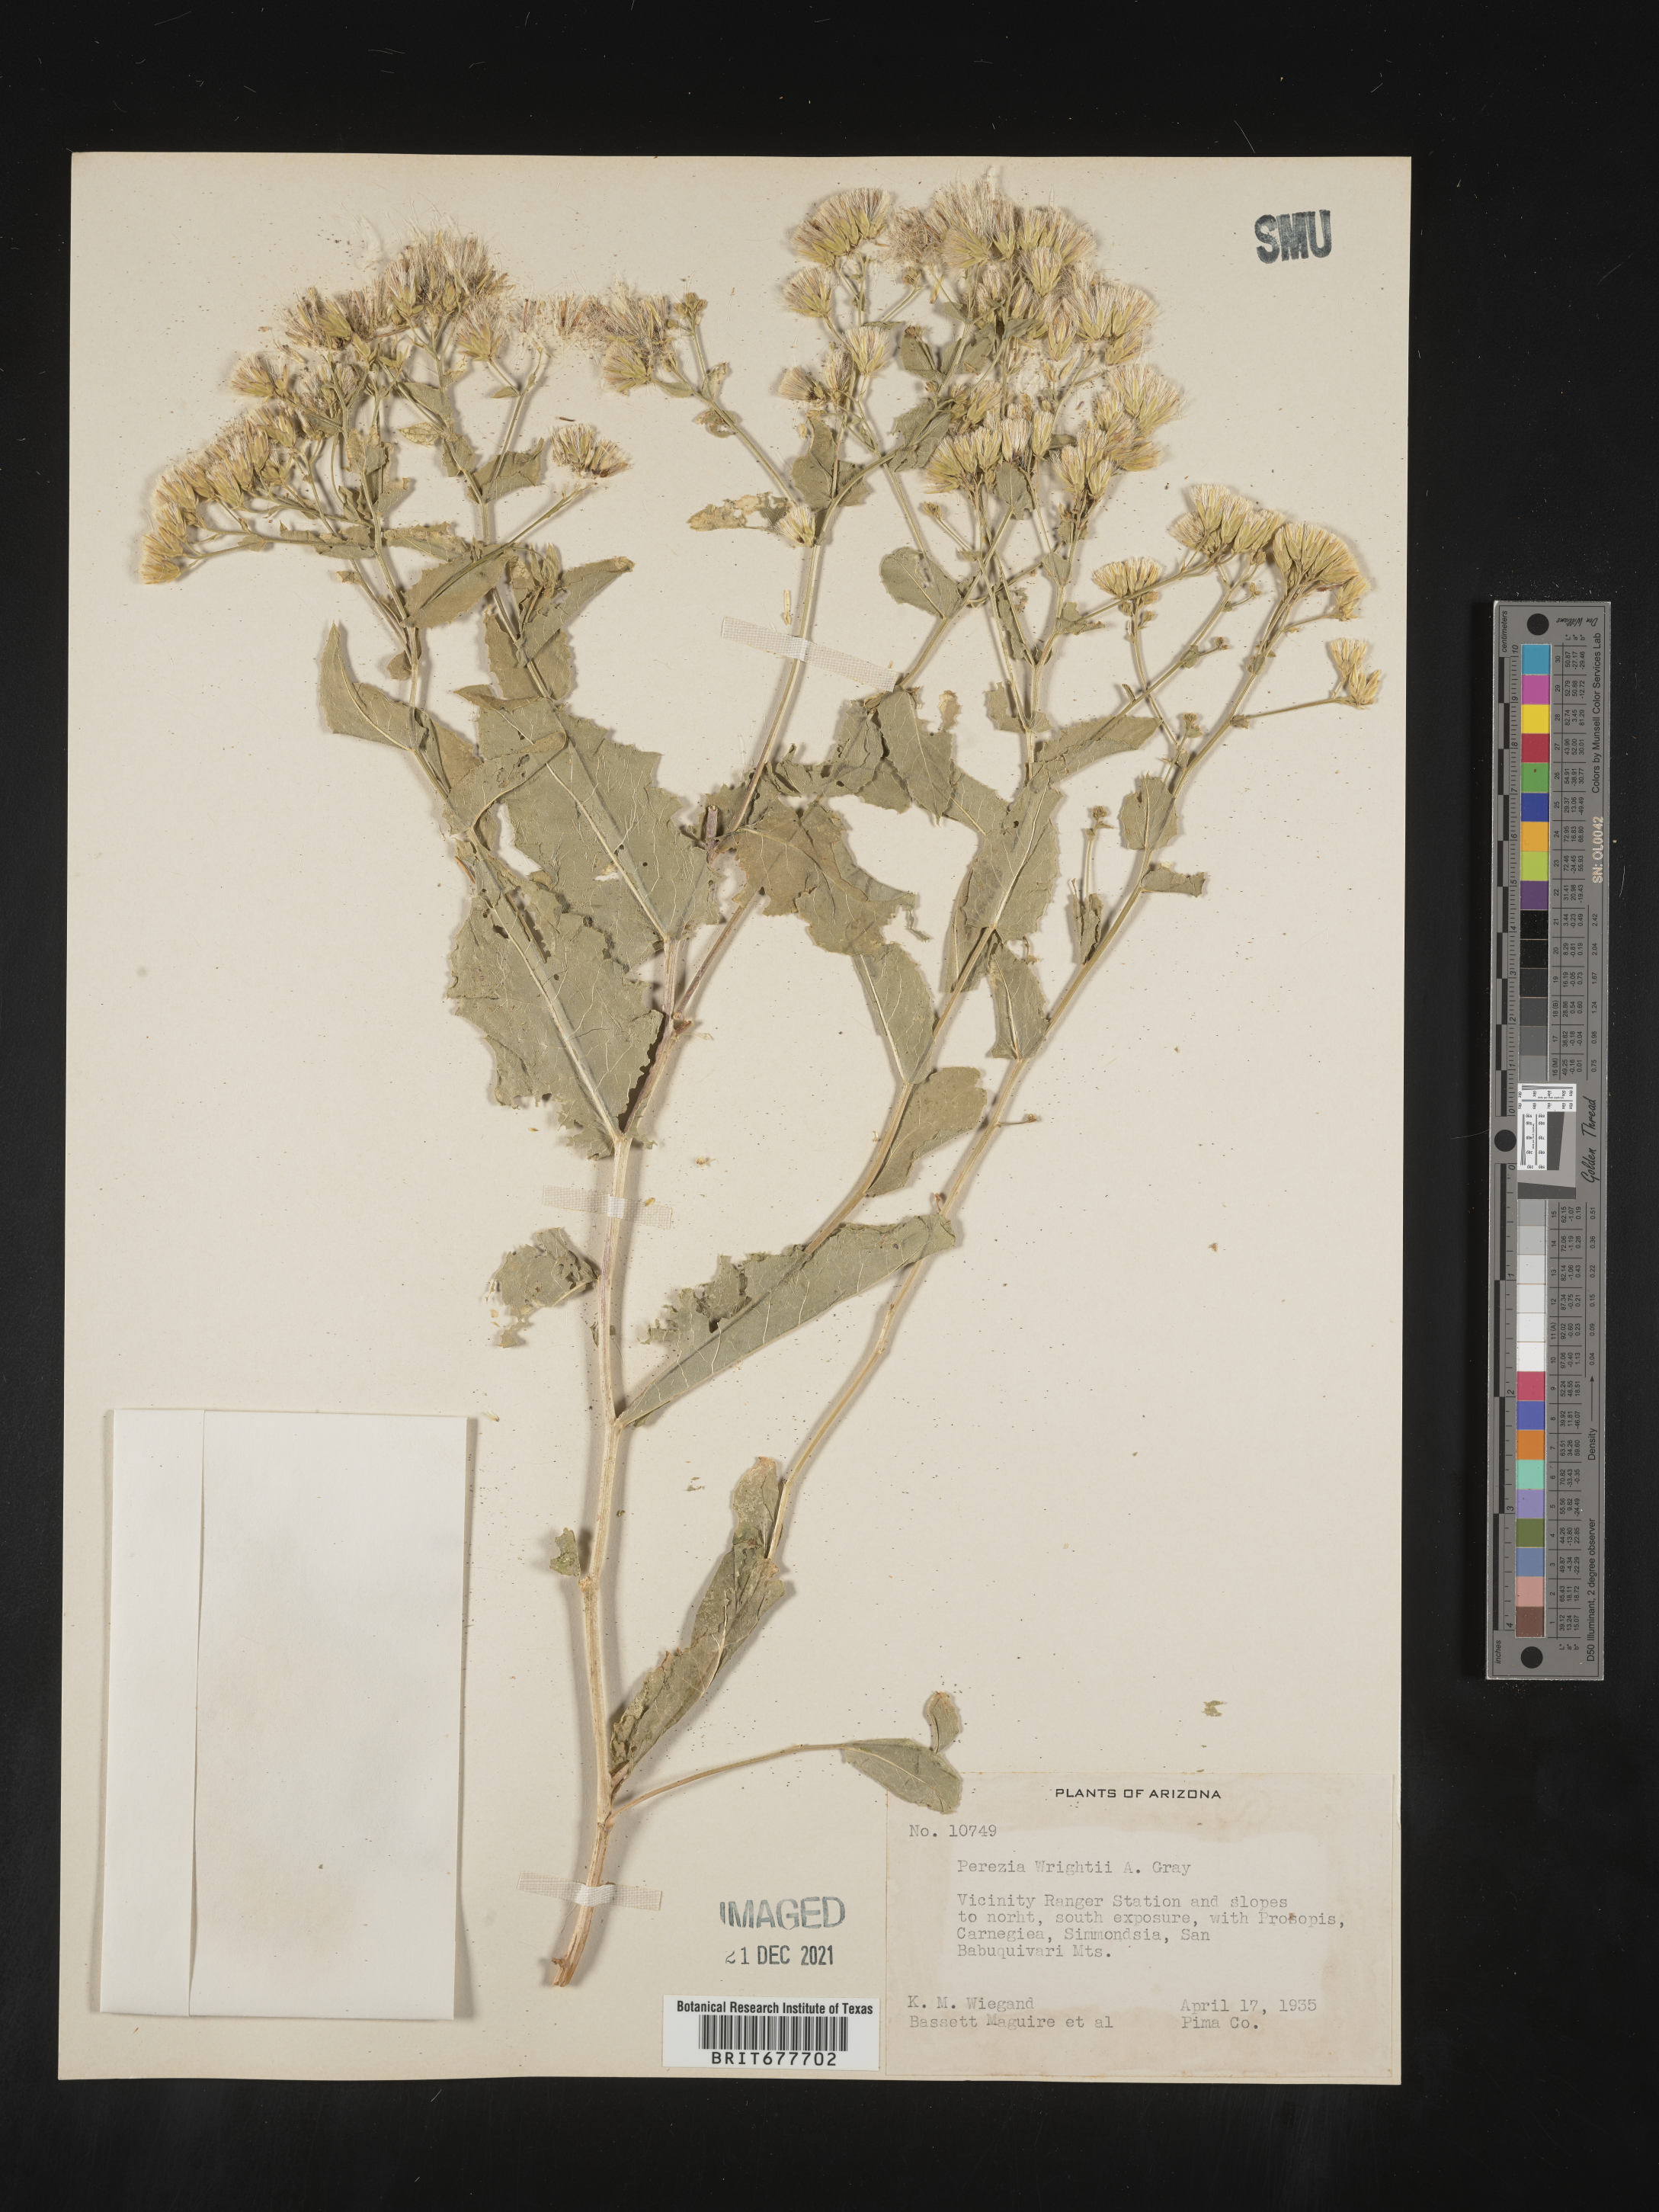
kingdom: Plantae
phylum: Tracheophyta
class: Magnoliopsida
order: Asterales
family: Asteraceae
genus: Perezia
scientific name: Perezia
